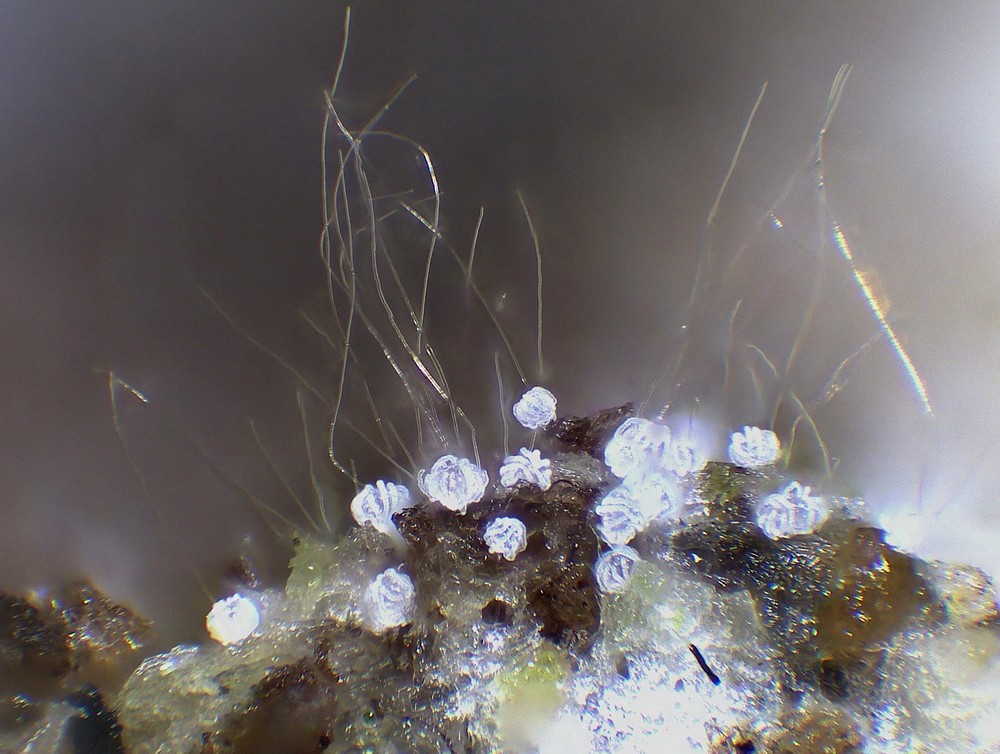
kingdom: Fungi
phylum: Basidiomycota
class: Agaricomycetes
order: Agaricales
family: Niaceae
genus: Peyronelina
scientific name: Peyronelina glomerulata
